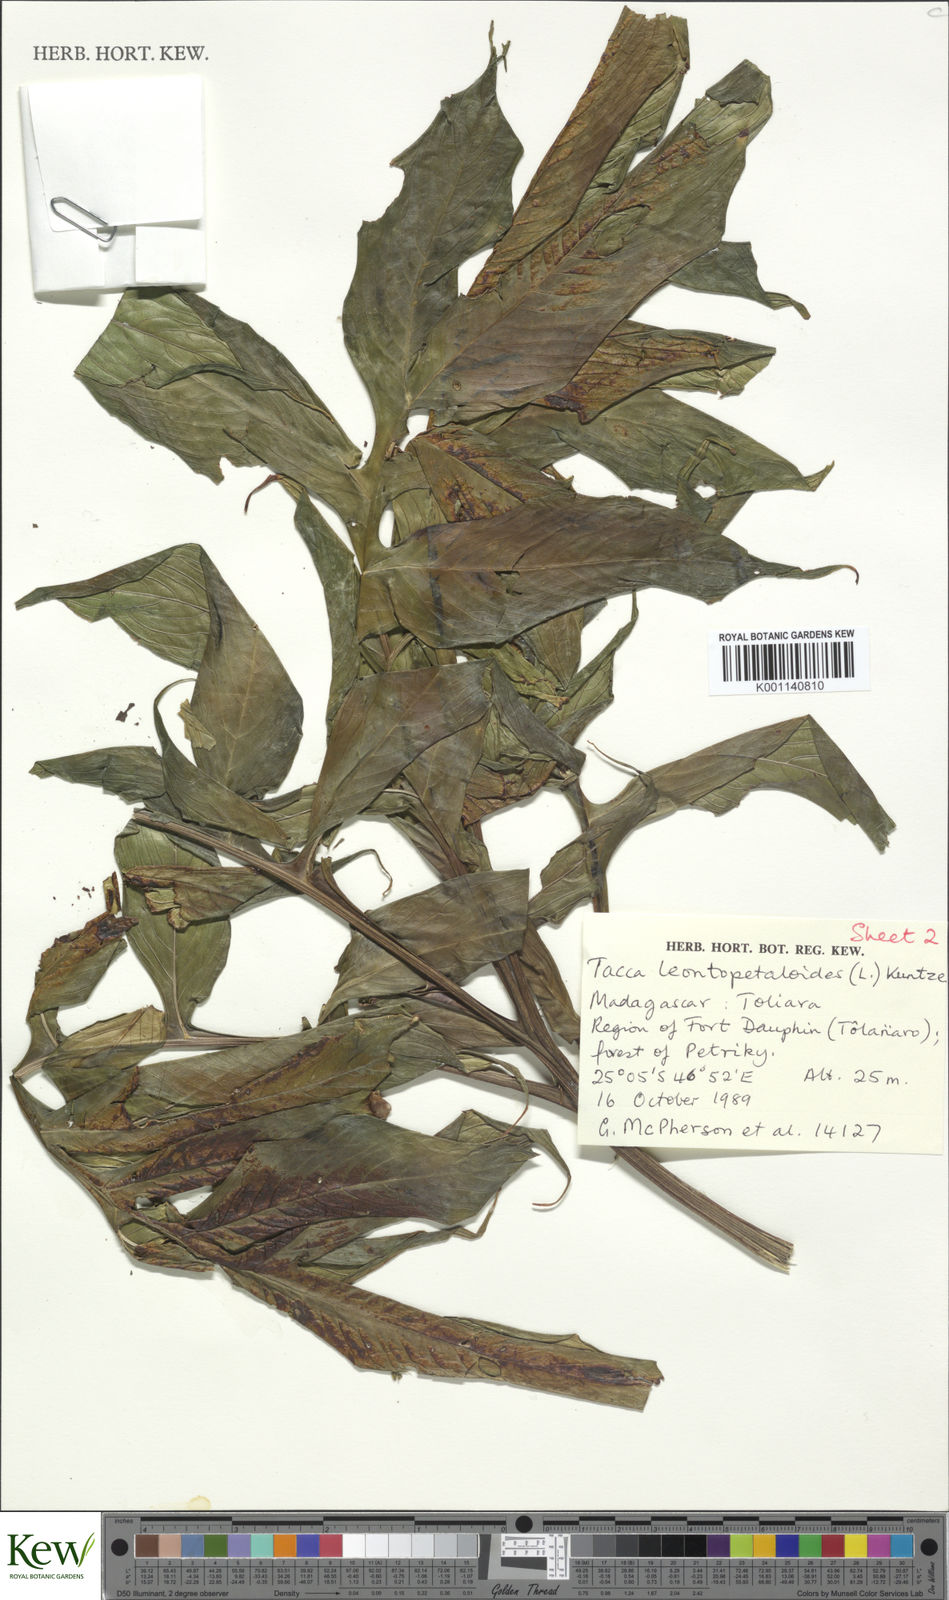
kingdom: Plantae
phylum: Tracheophyta
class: Liliopsida
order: Dioscoreales
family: Dioscoreaceae
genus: Tacca
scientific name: Tacca leontopetaloides
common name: Arrowroot
